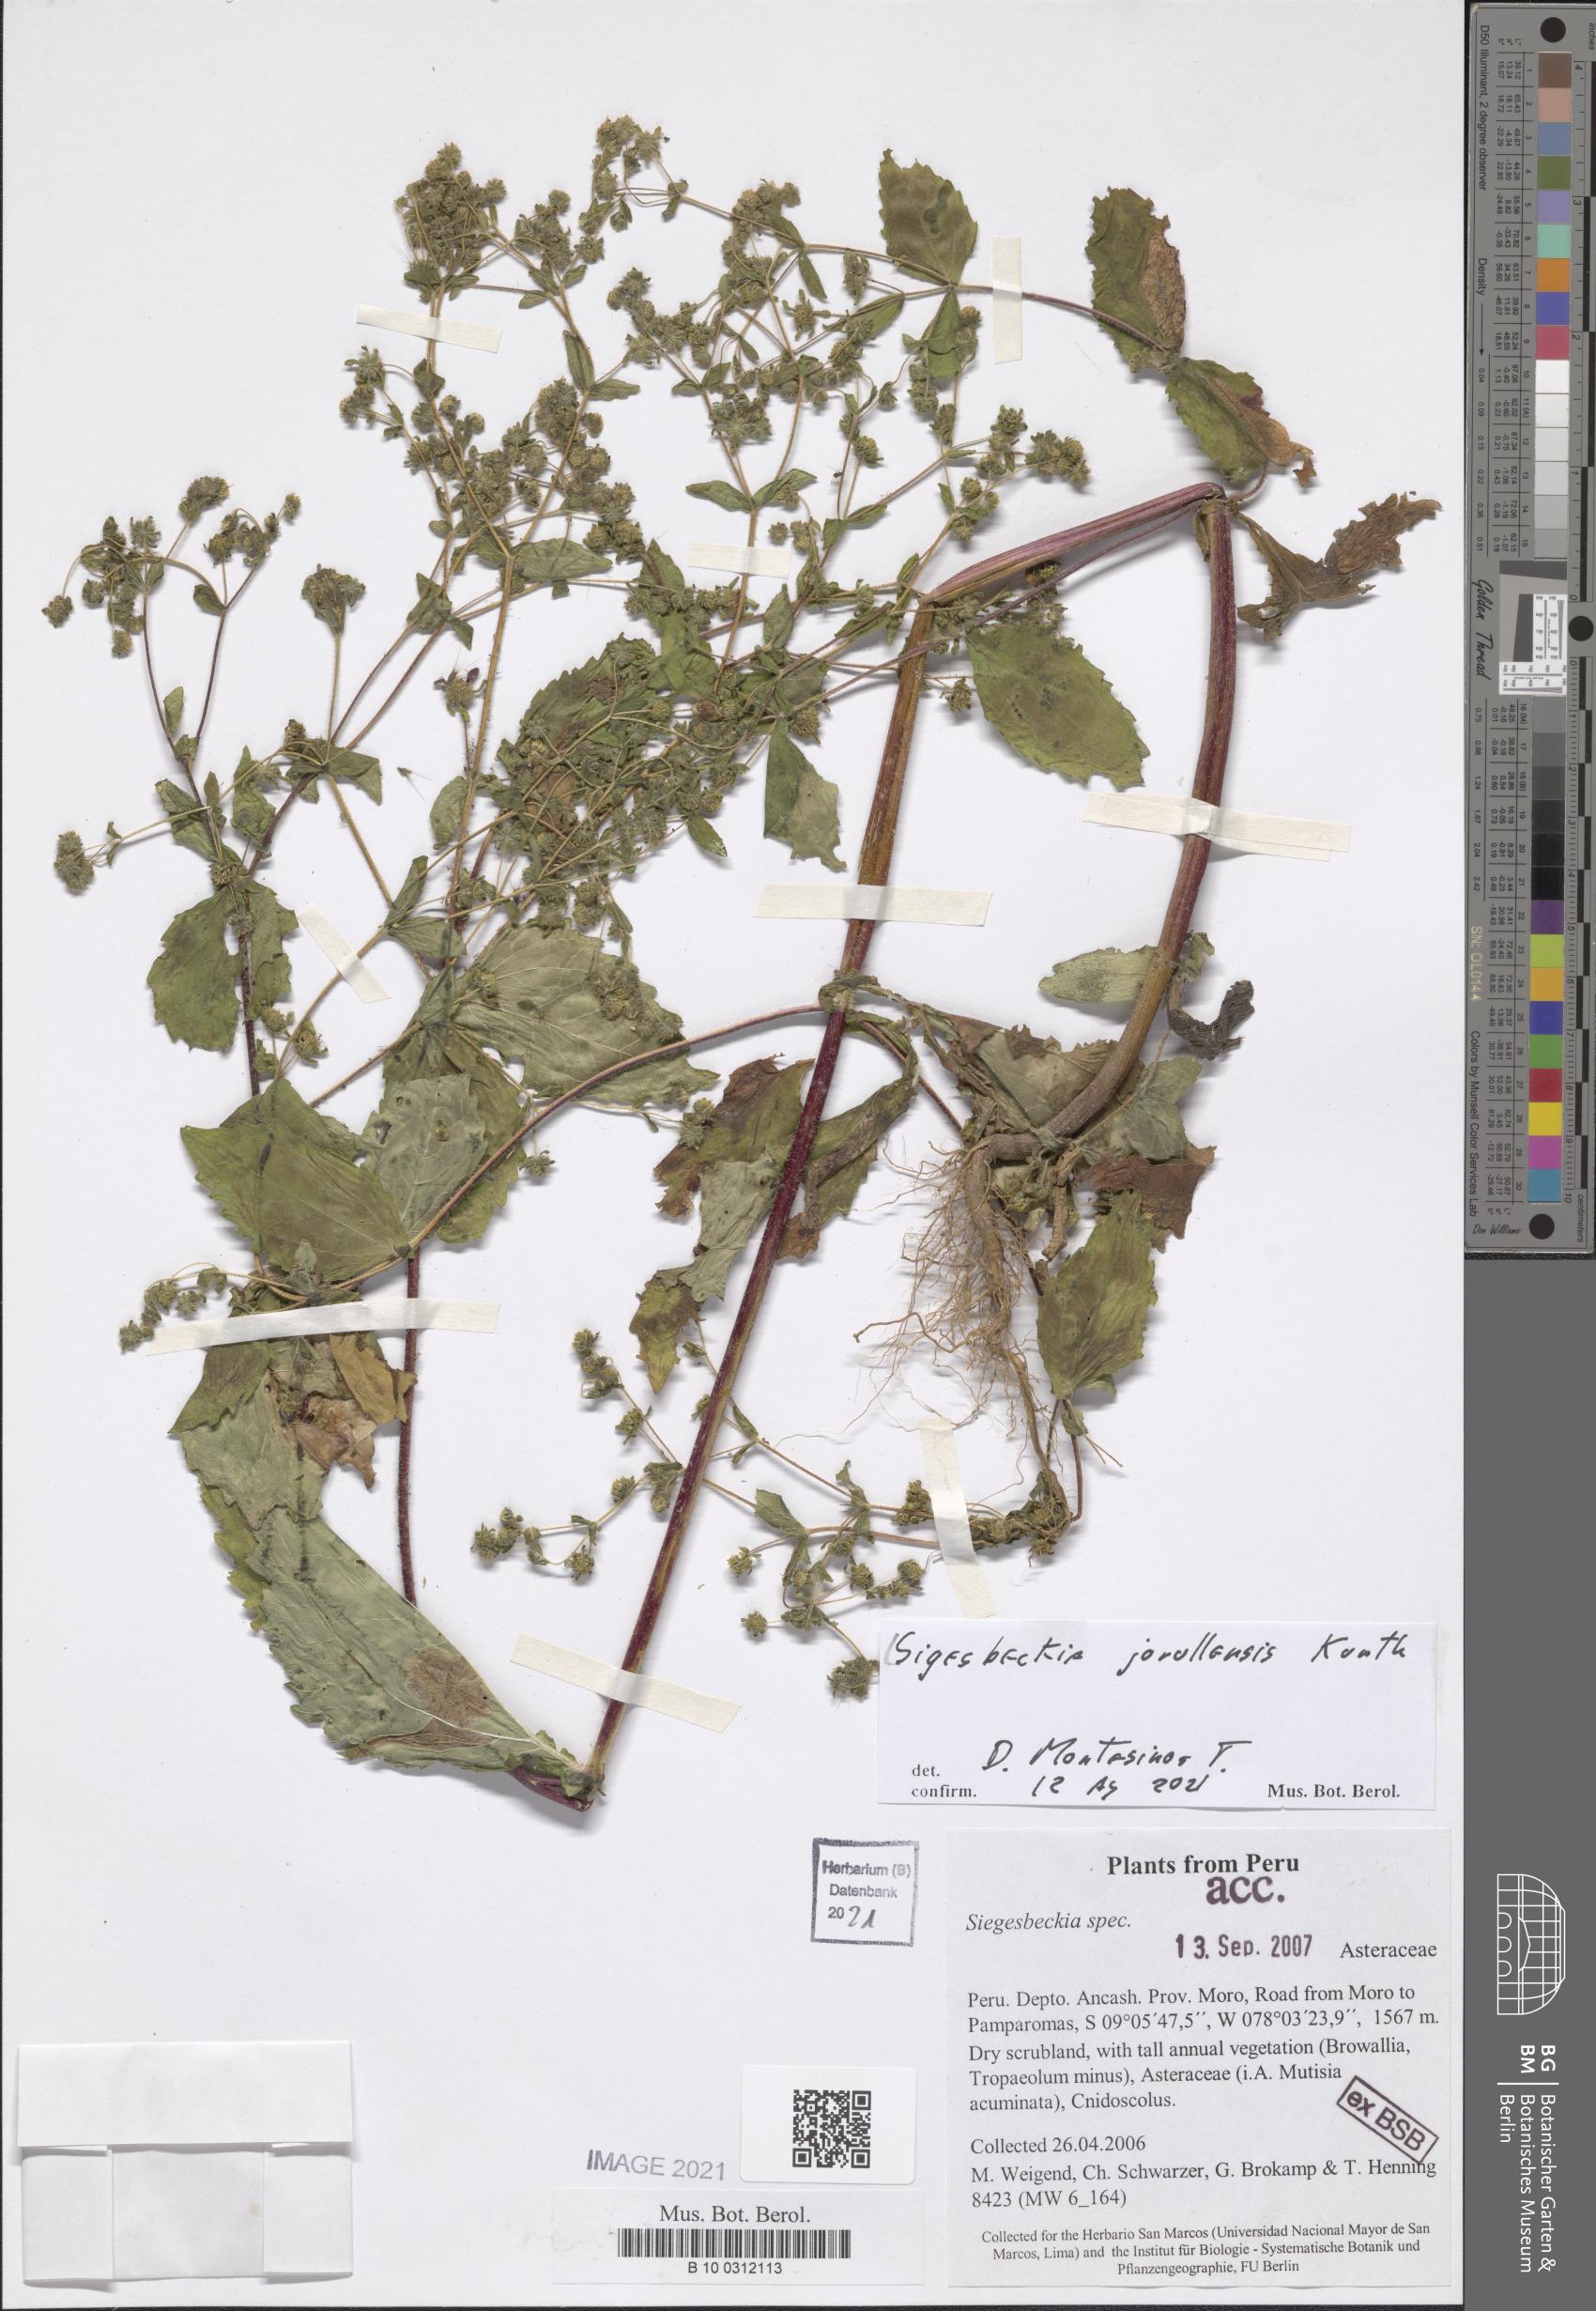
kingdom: Plantae
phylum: Tracheophyta
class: Magnoliopsida
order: Asterales
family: Asteraceae
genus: Sigesbeckia
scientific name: Sigesbeckia jorullensis
